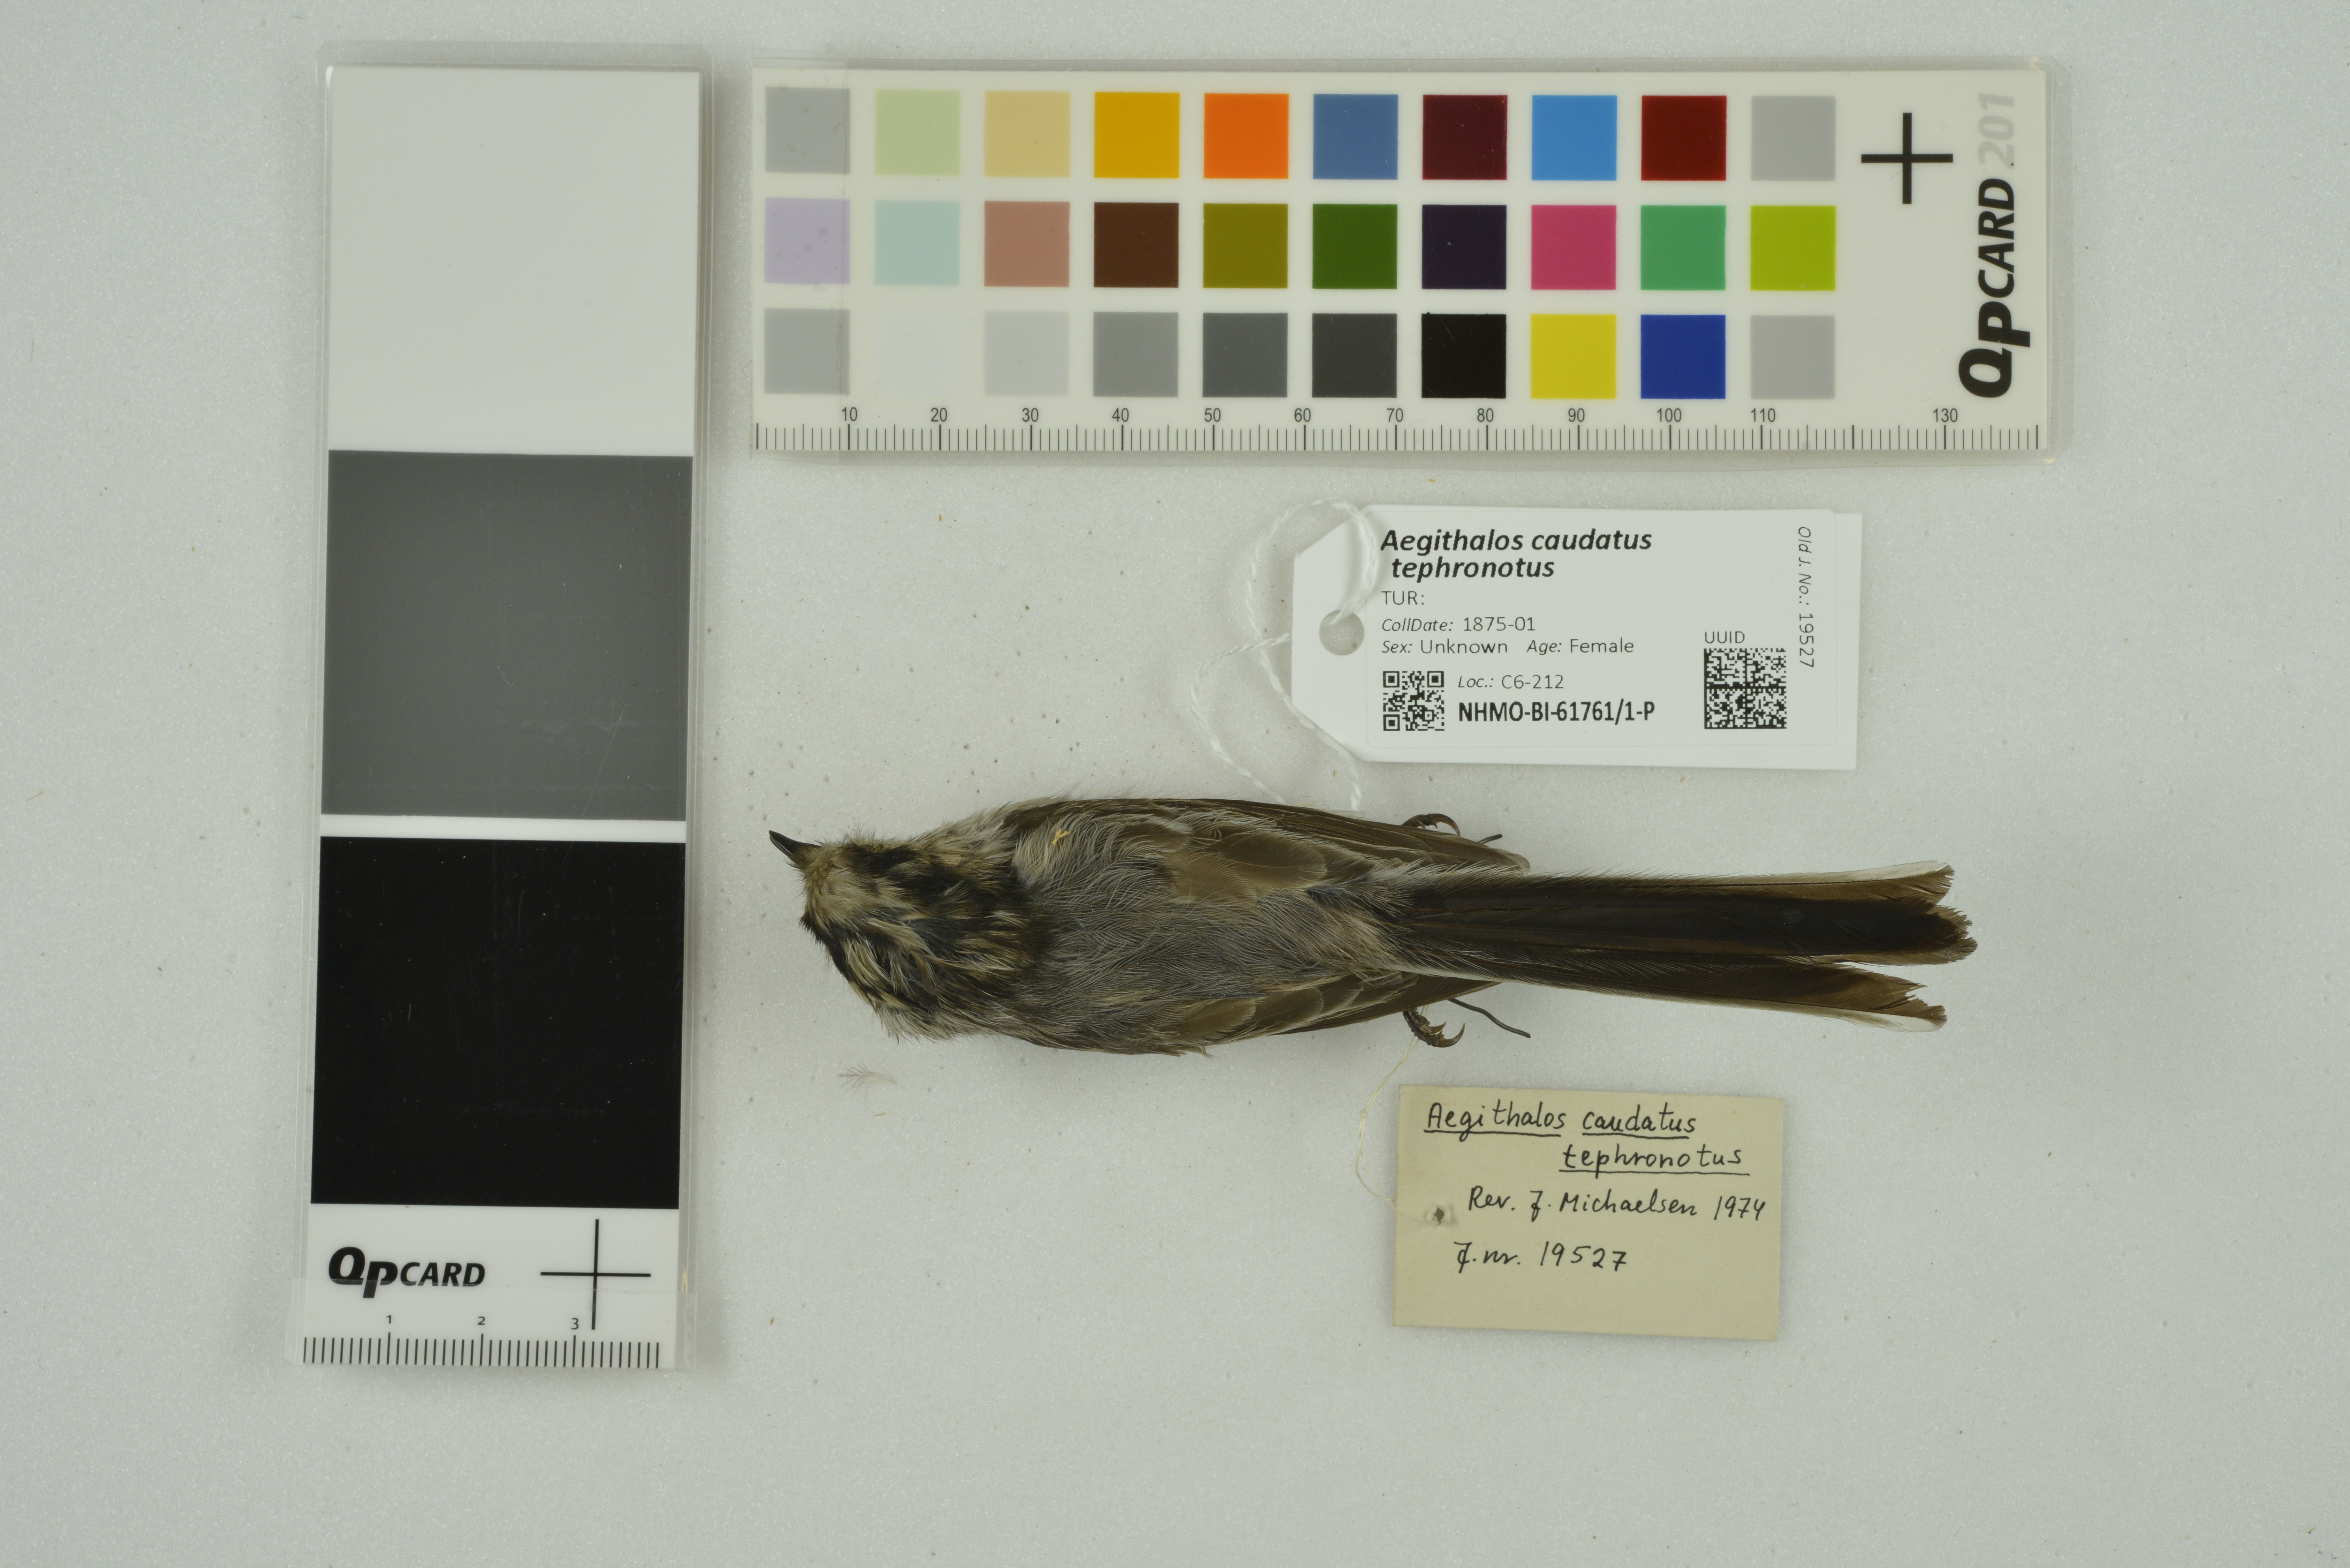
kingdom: Animalia
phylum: Chordata
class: Aves
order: Passeriformes
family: Aegithalidae
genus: Aegithalos
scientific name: Aegithalos caudatus
